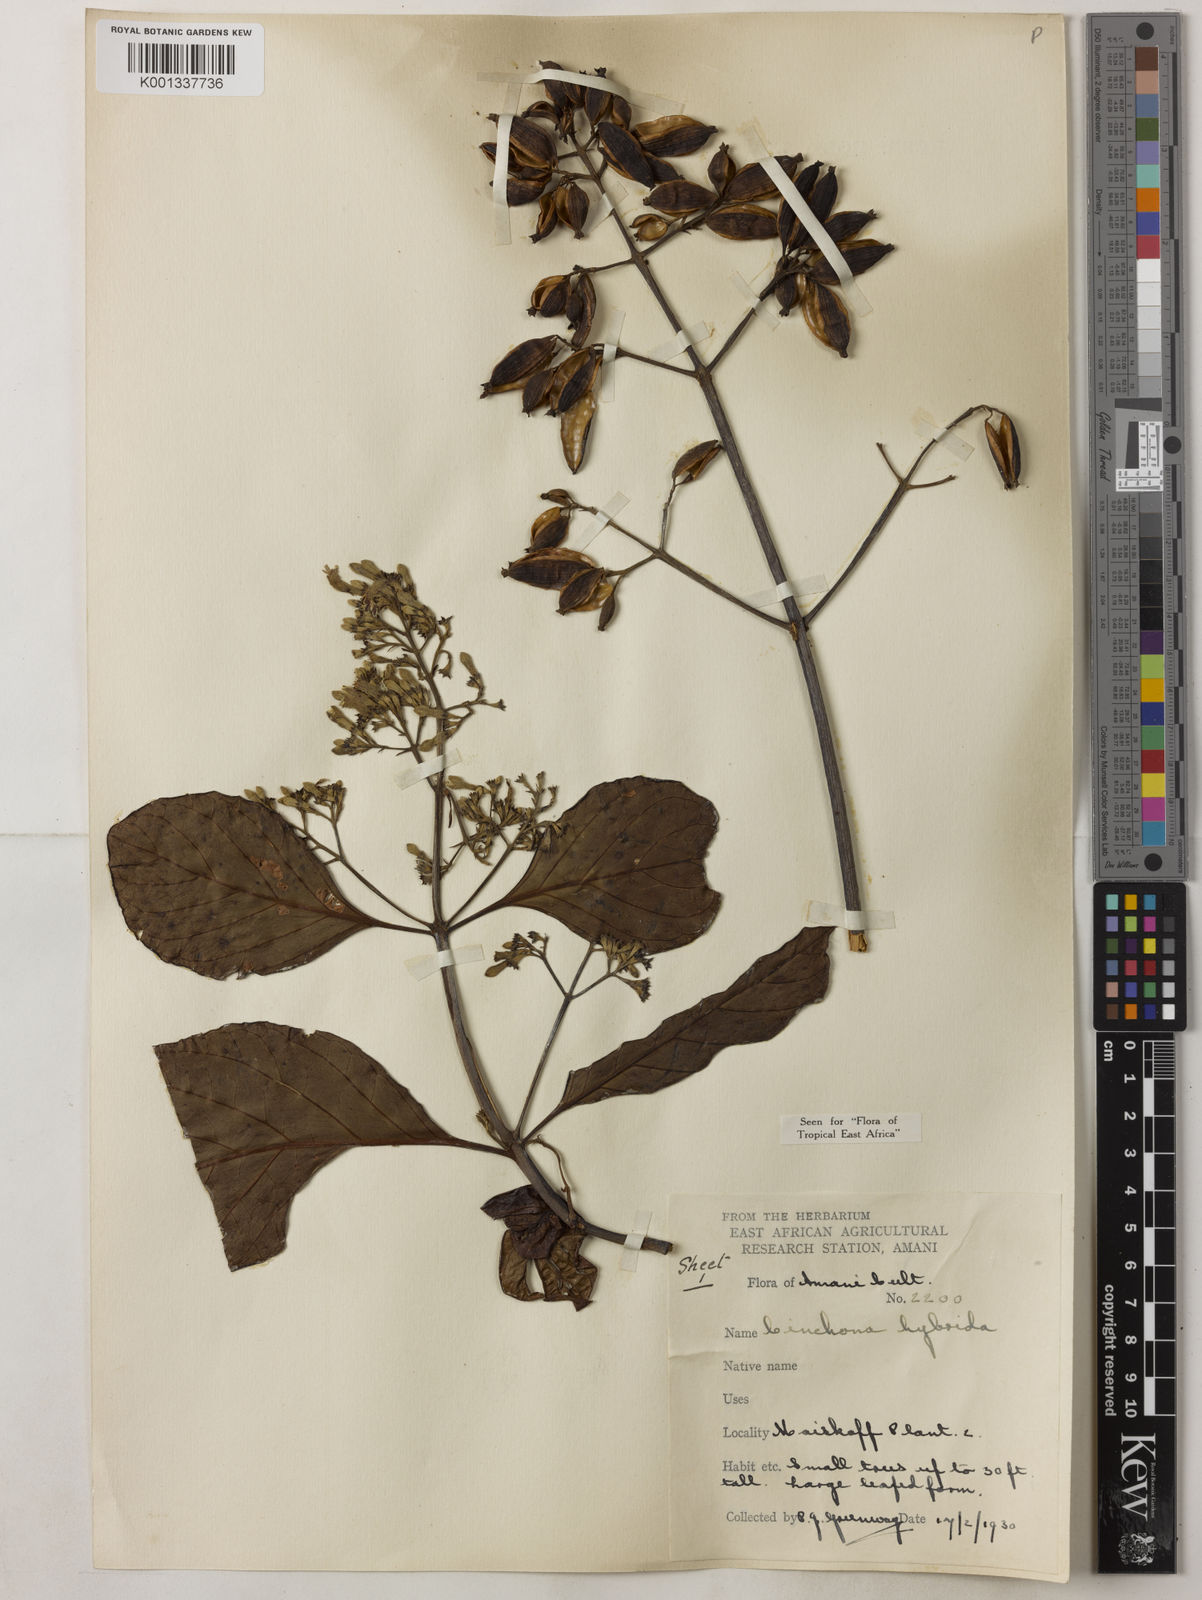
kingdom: Plantae
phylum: Tracheophyta
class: Magnoliopsida
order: Gentianales
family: Rubiaceae
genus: Cinchona
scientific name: Cinchona
